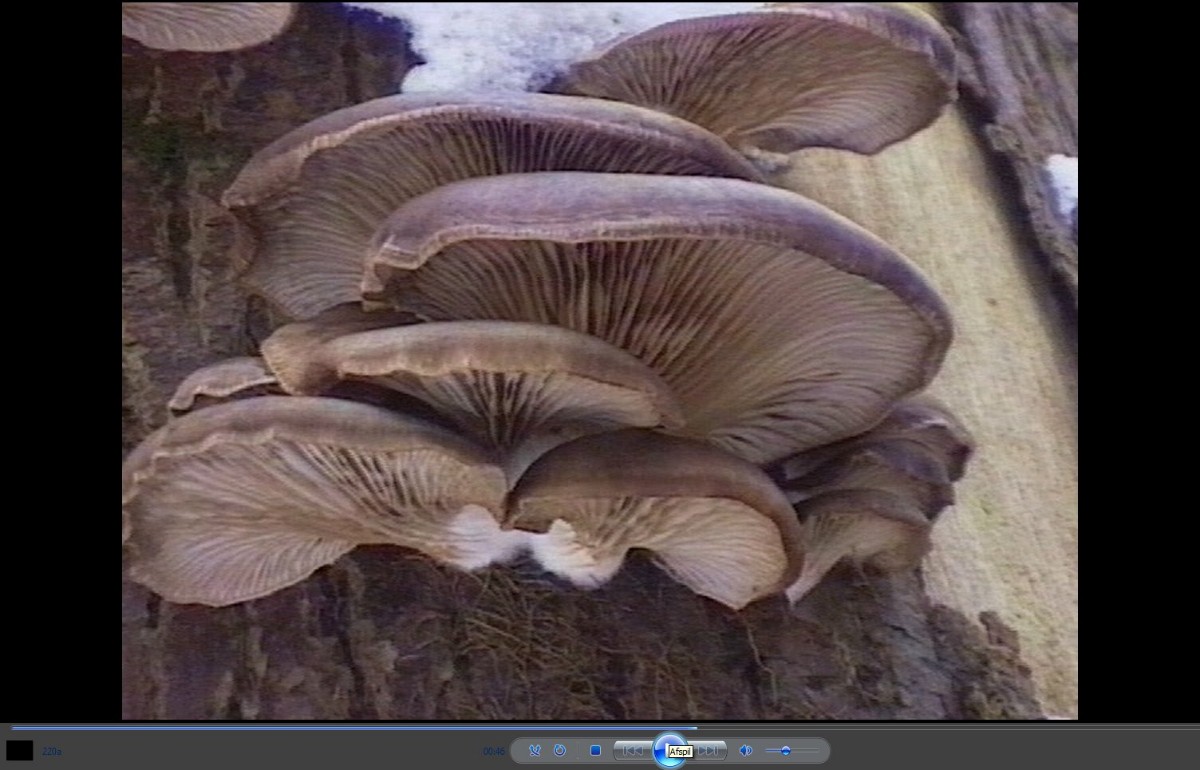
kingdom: Fungi
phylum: Basidiomycota
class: Agaricomycetes
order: Agaricales
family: Pleurotaceae
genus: Pleurotus
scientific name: Pleurotus ostreatus
